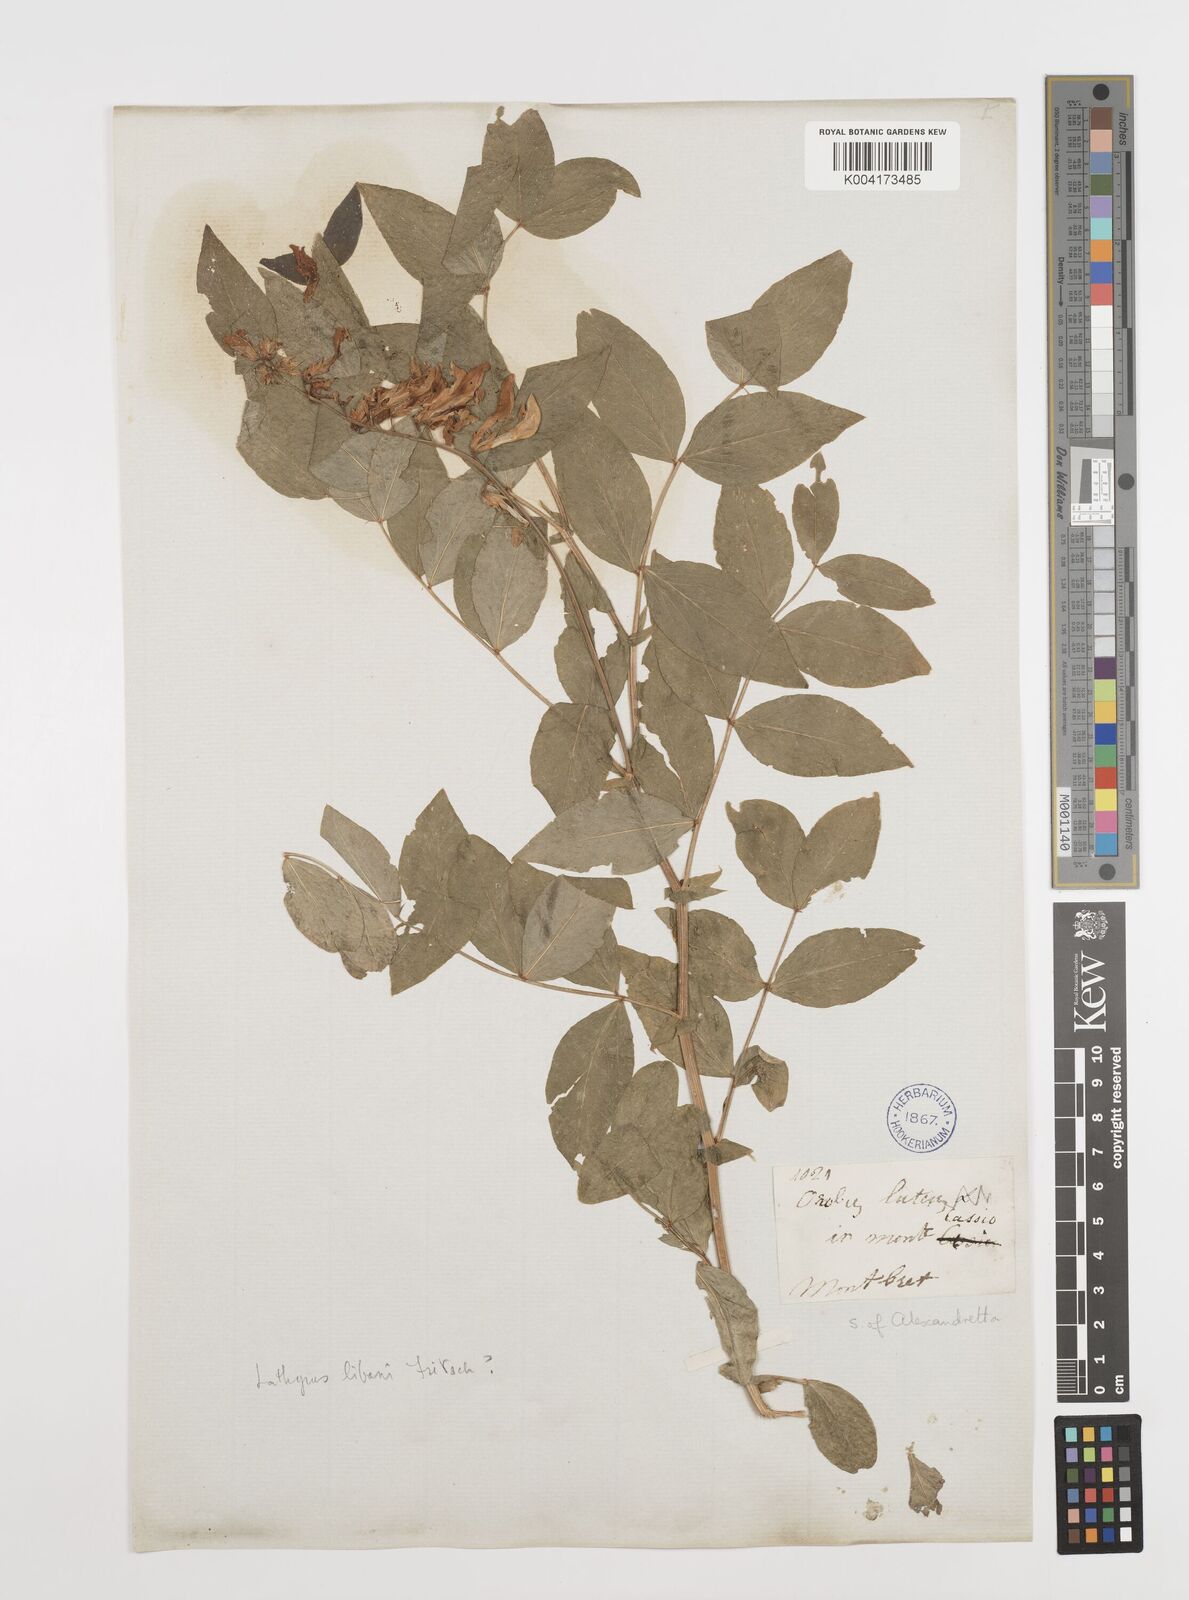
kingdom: Plantae
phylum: Tracheophyta
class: Magnoliopsida
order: Fabales
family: Fabaceae
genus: Lathyrus
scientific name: Lathyrus libani
